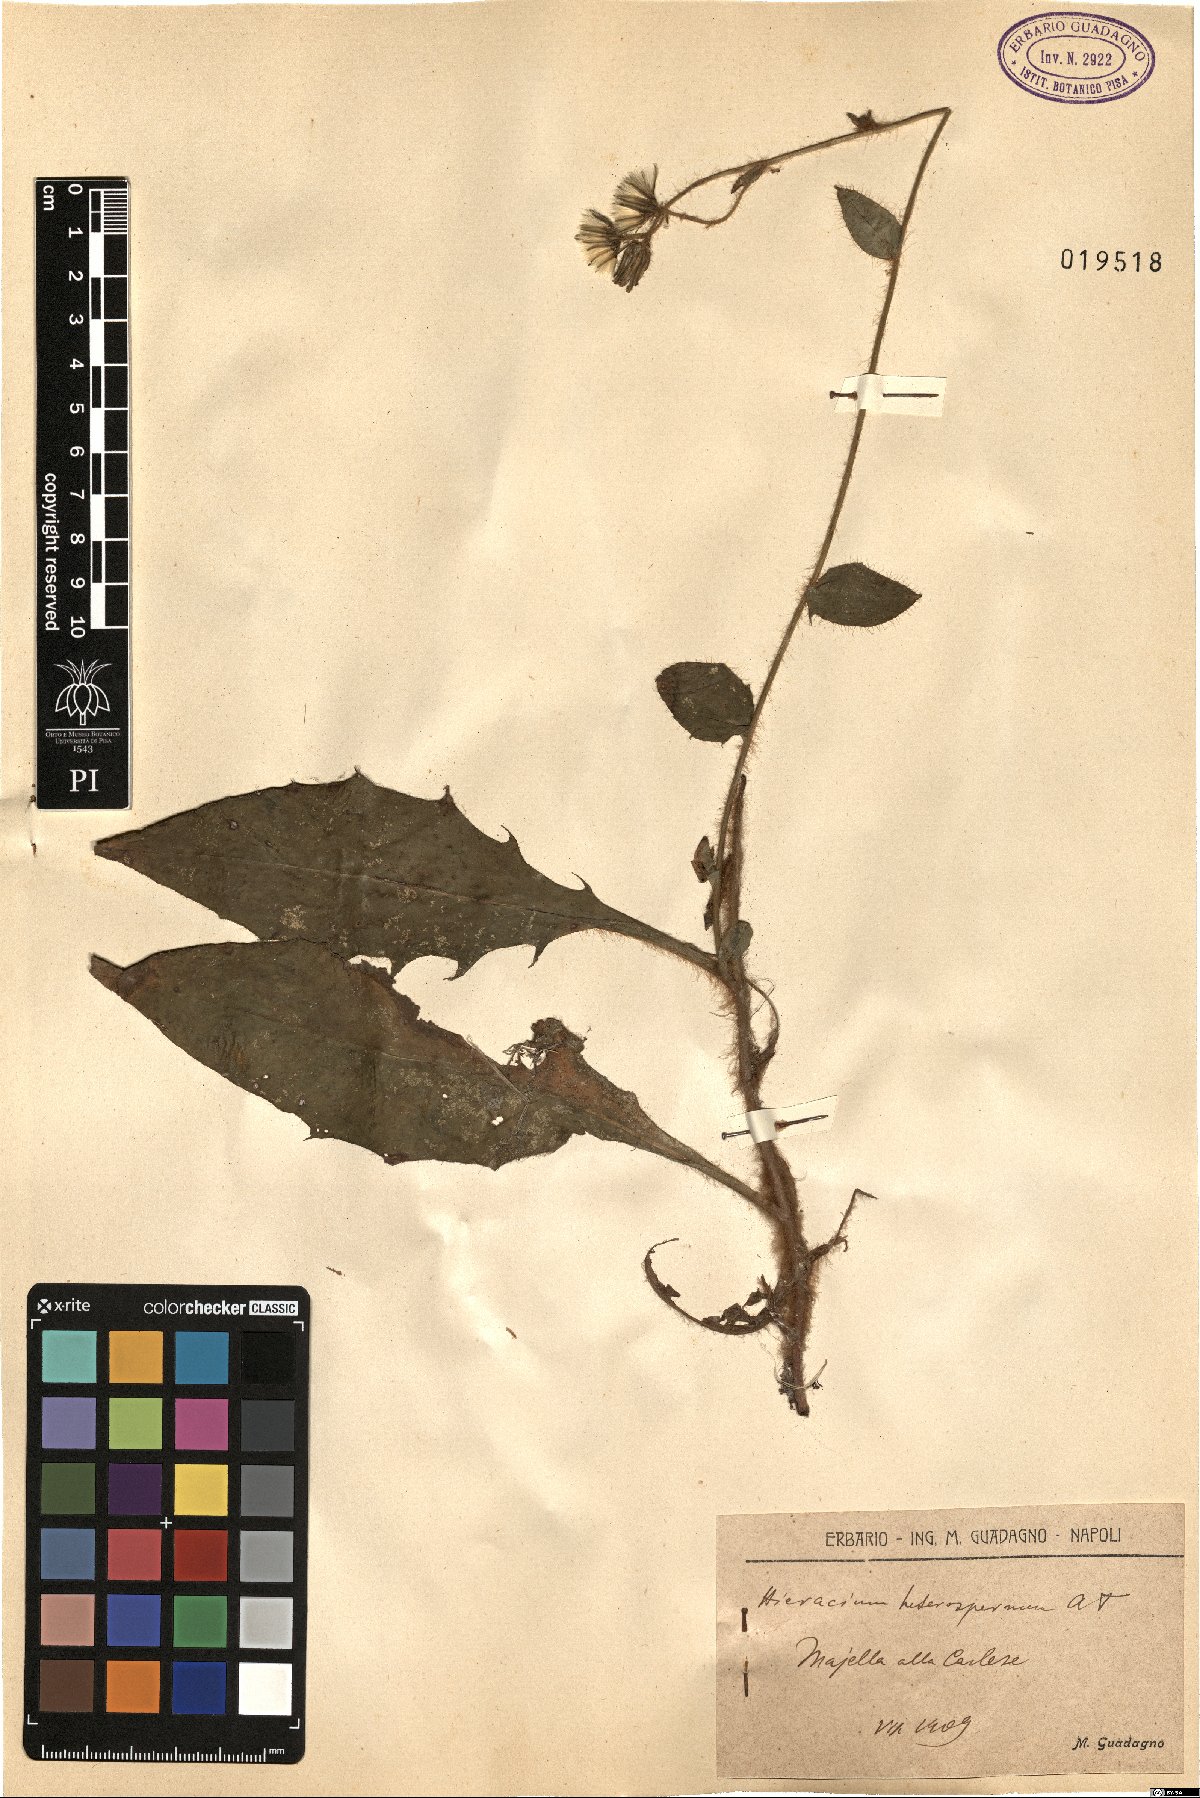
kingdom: Plantae
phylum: Tracheophyta
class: Magnoliopsida
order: Asterales
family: Asteraceae
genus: Hieracium
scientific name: Hieracium racemosum
